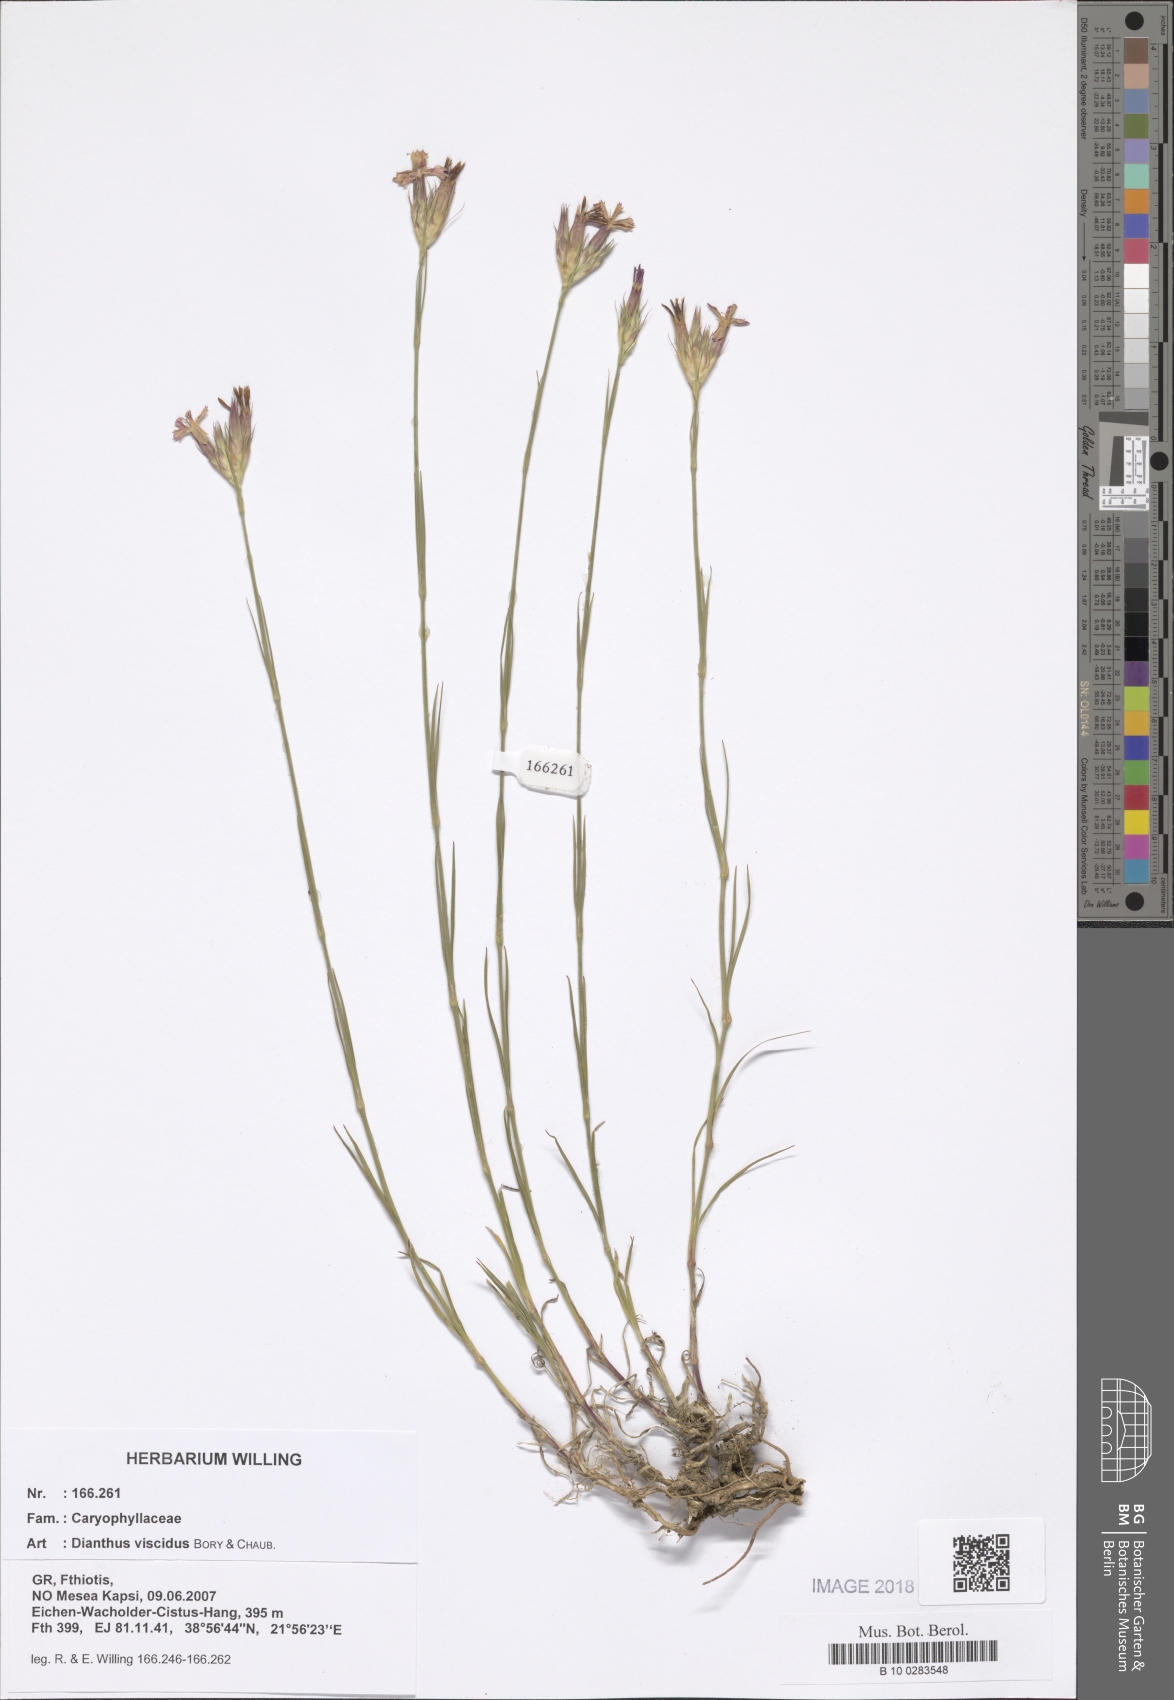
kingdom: Plantae
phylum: Tracheophyta
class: Magnoliopsida
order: Caryophyllales
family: Caryophyllaceae
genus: Dianthus
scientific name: Dianthus viscidus
